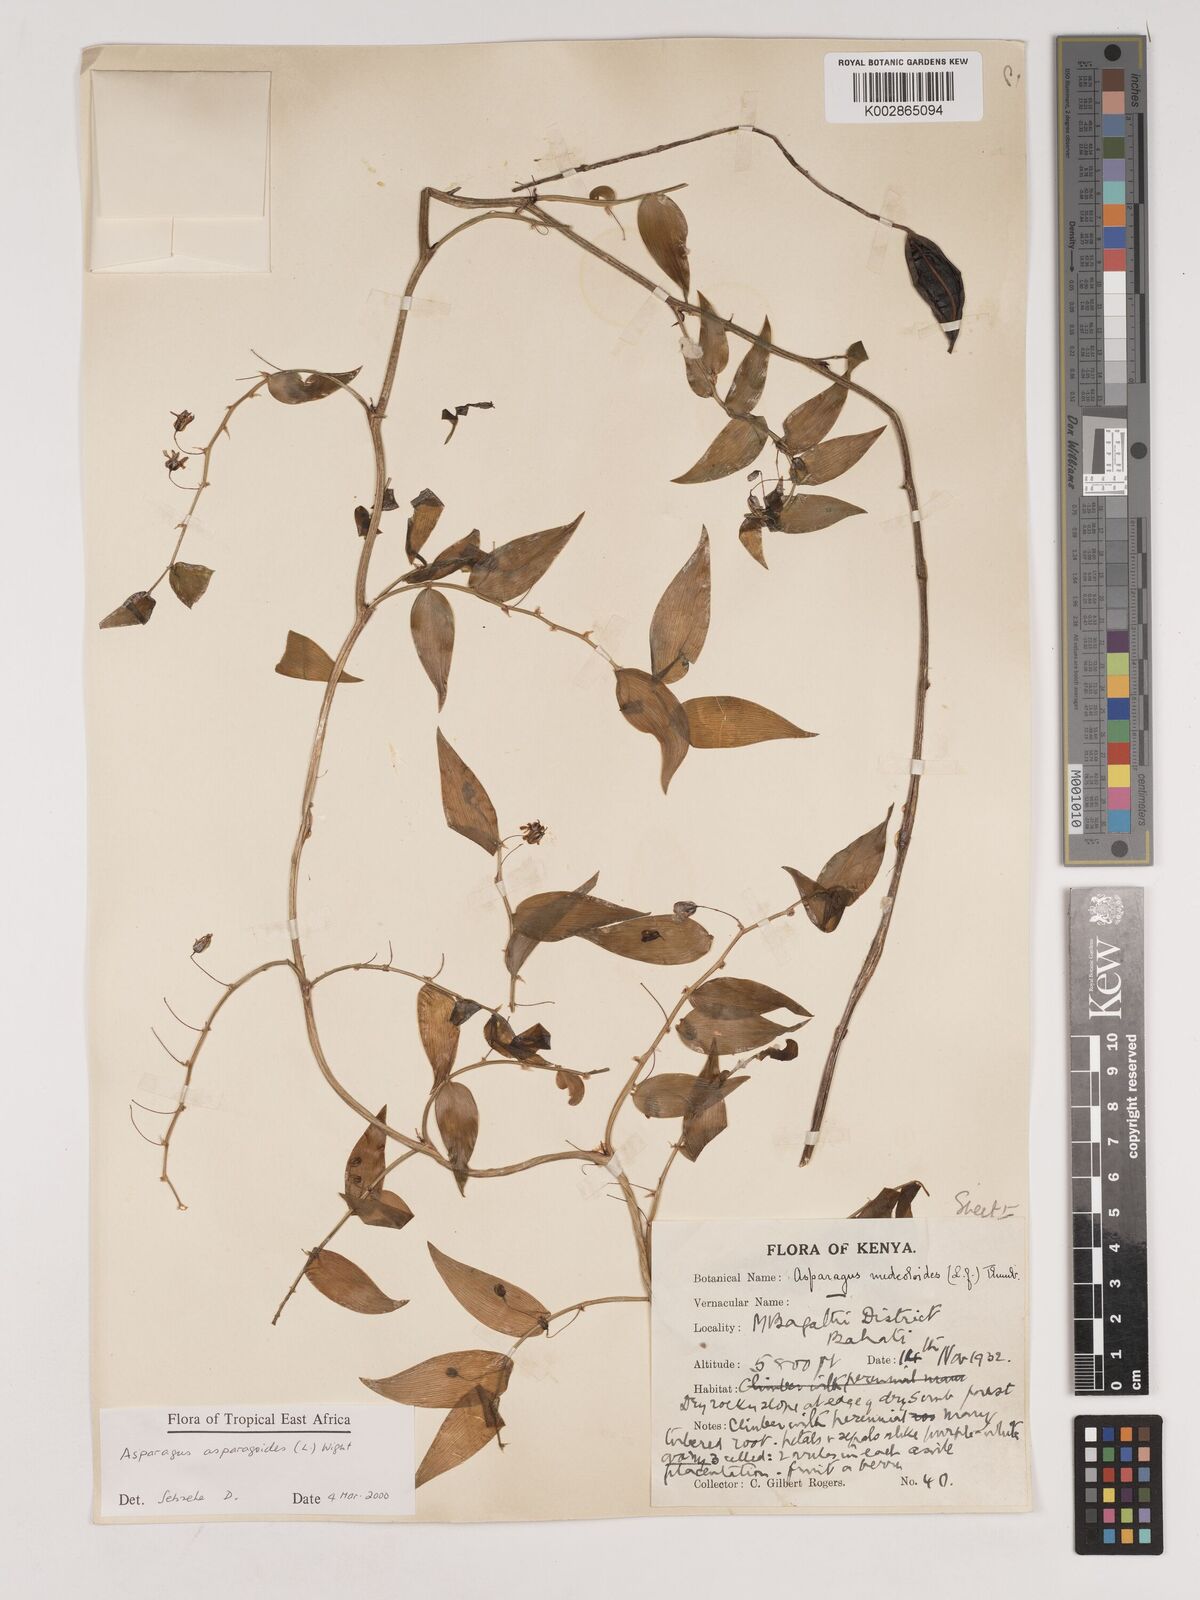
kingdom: Plantae
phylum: Tracheophyta
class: Liliopsida
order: Asparagales
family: Asparagaceae
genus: Asparagus
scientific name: Asparagus asparagoides
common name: African asparagus fern
